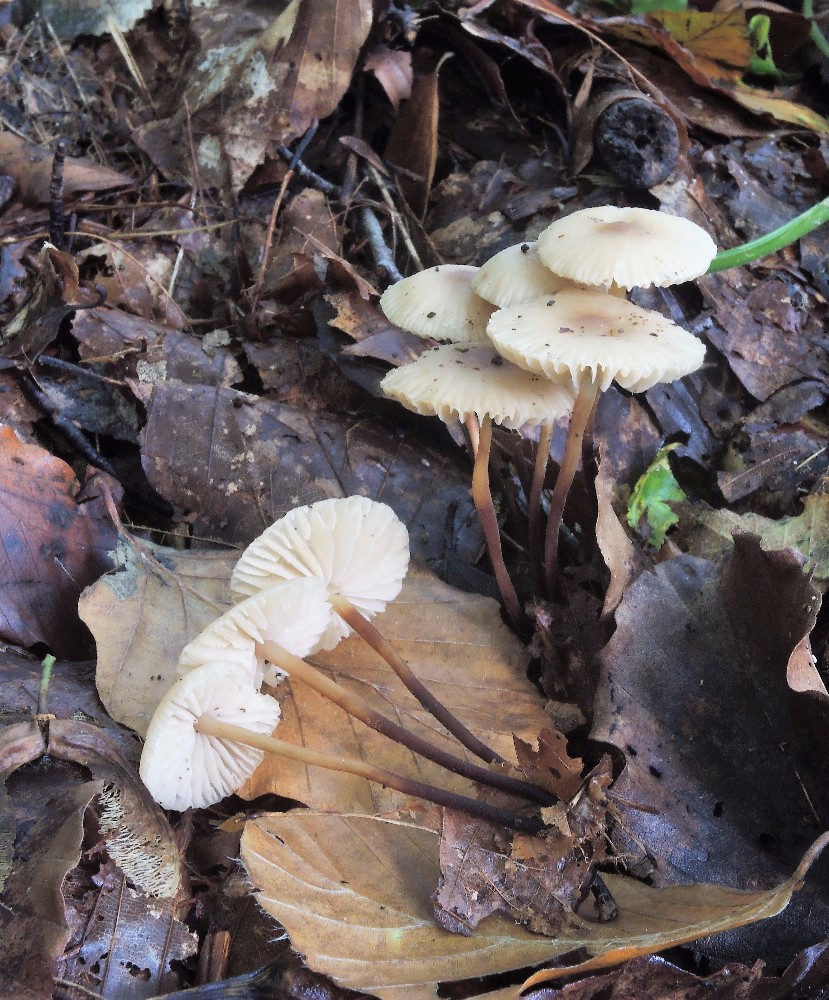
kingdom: Fungi
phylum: Basidiomycota
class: Agaricomycetes
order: Agaricales
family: Marasmiaceae
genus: Marasmius
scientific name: Marasmius torquescens
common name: filtfodet bruskhat
